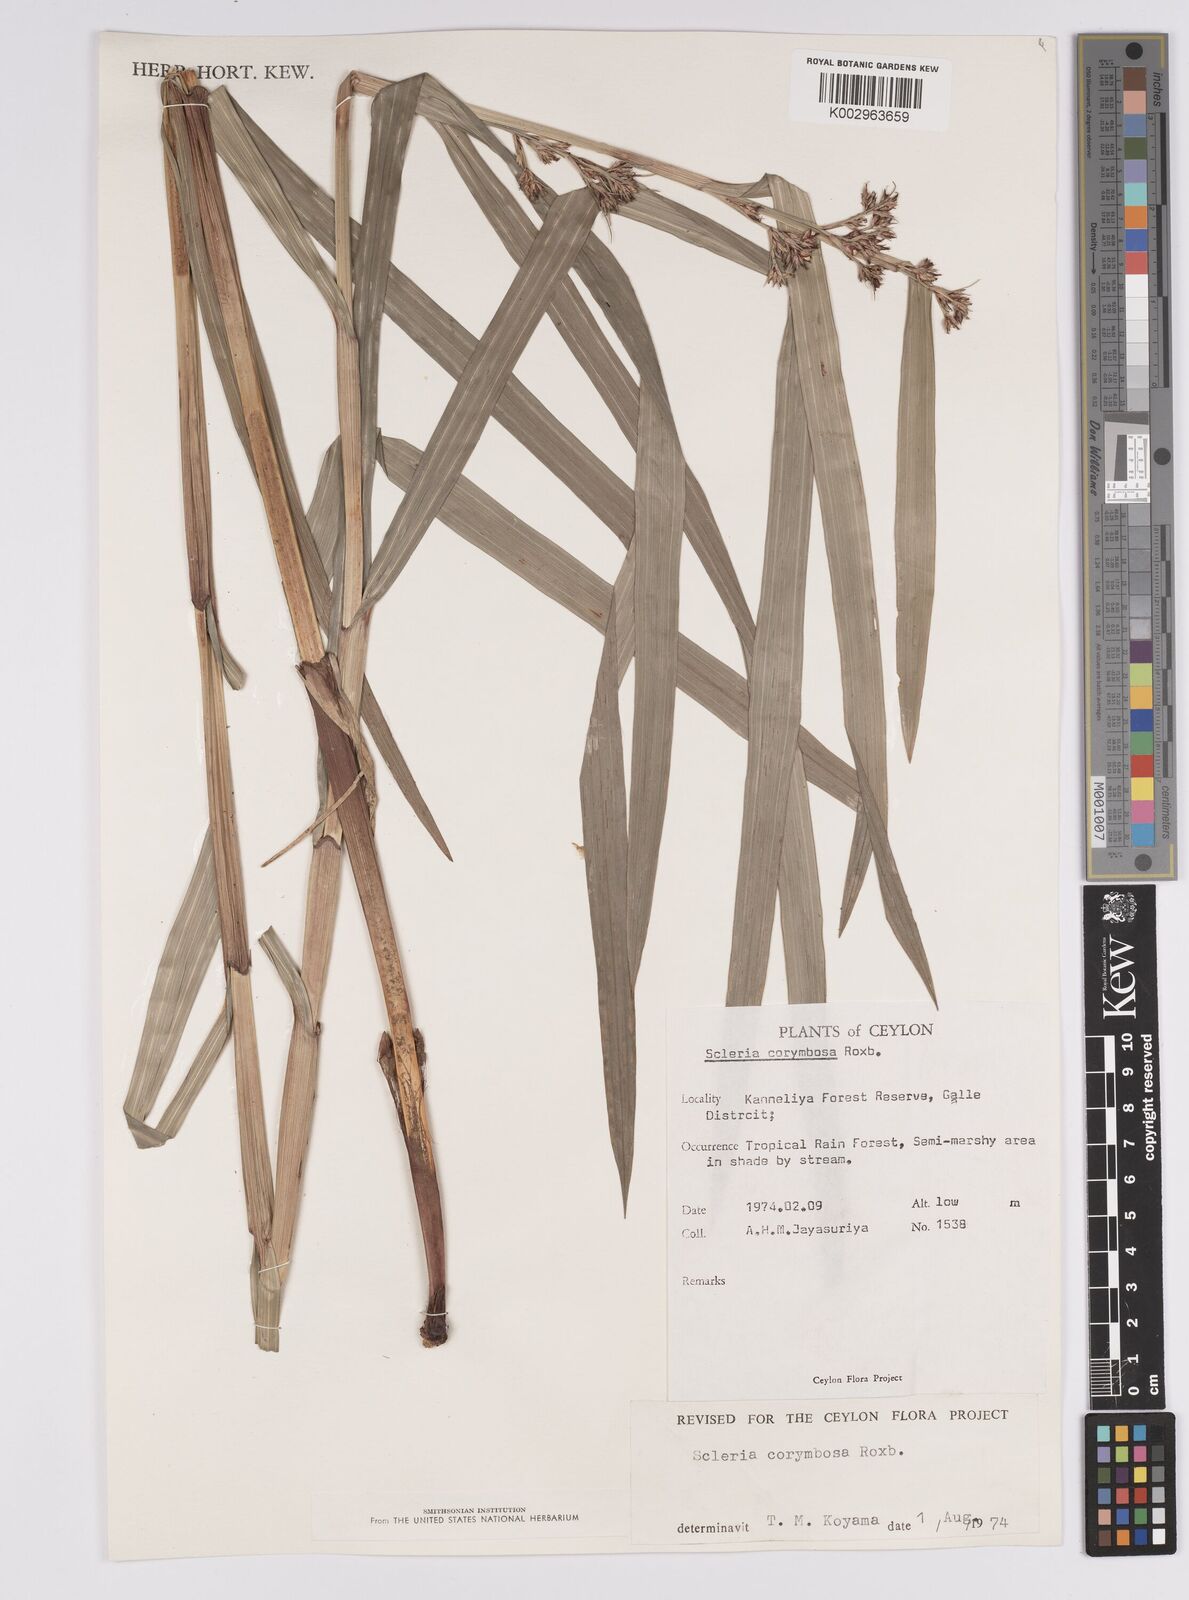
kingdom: Plantae
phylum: Tracheophyta
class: Liliopsida
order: Poales
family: Cyperaceae
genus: Scleria
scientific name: Scleria corymbosa
